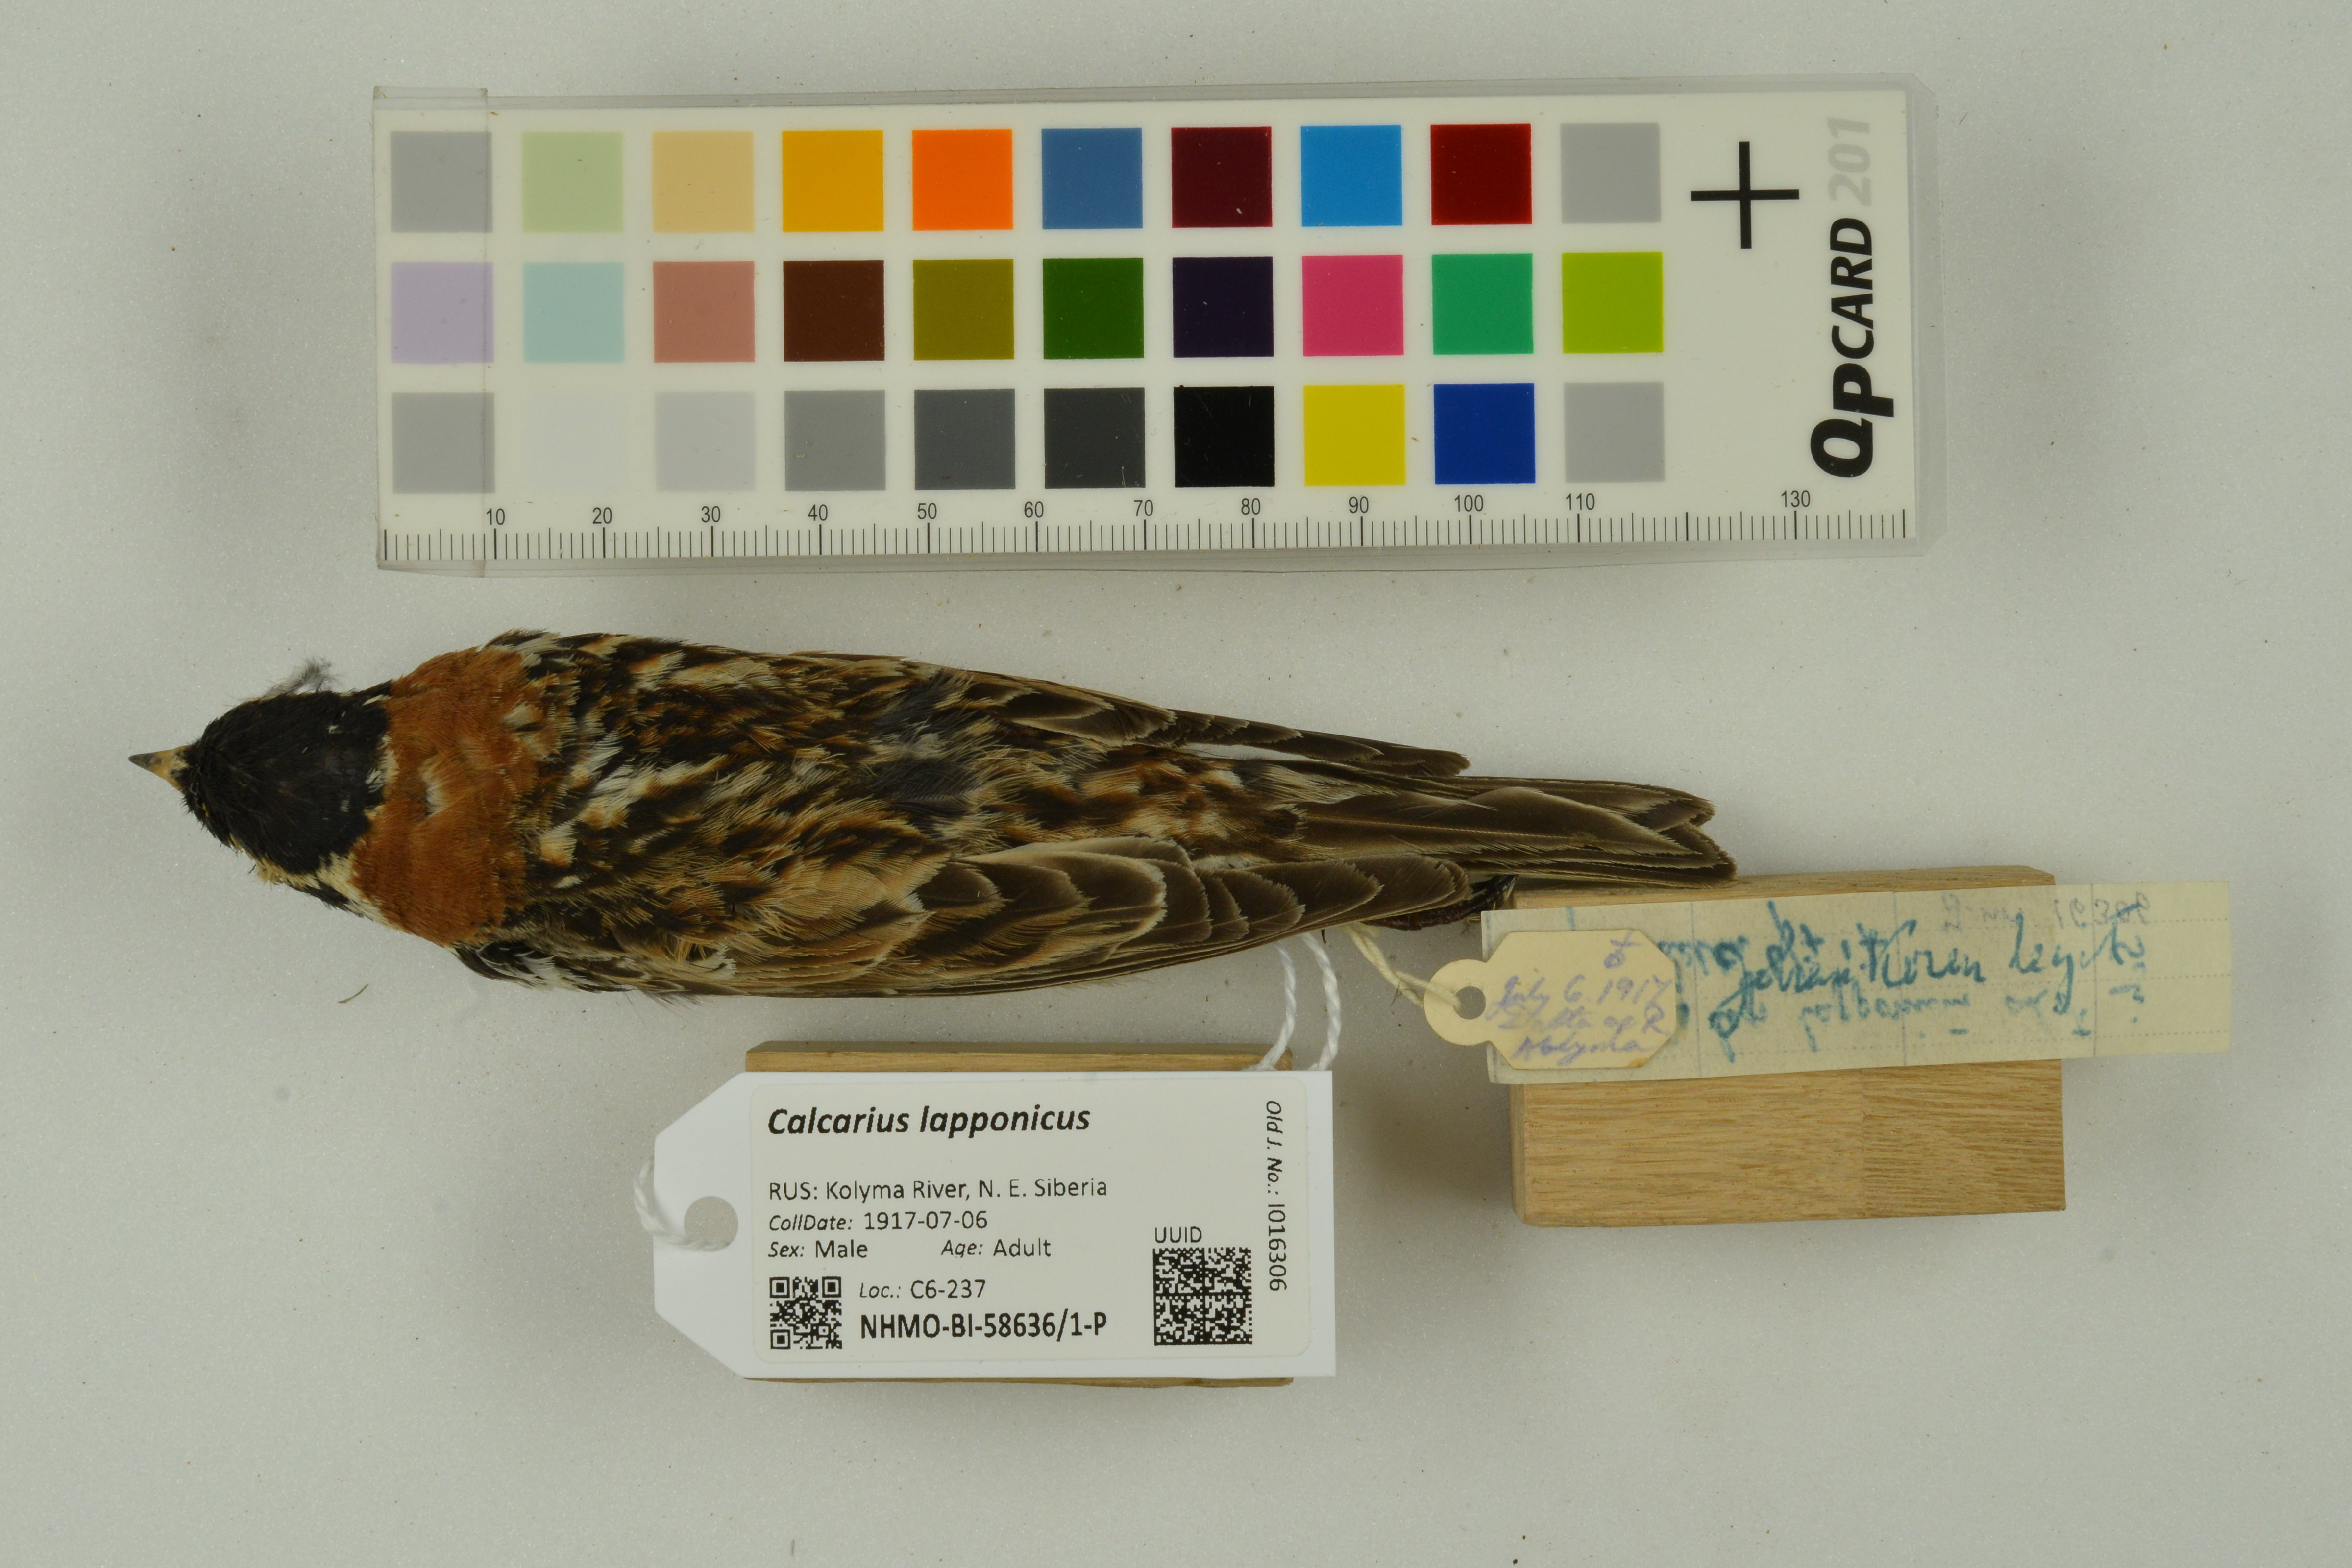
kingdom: Animalia
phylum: Chordata
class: Aves
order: Passeriformes
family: Calcariidae
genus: Calcarius
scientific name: Calcarius lapponicus
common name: Lapland longspur
